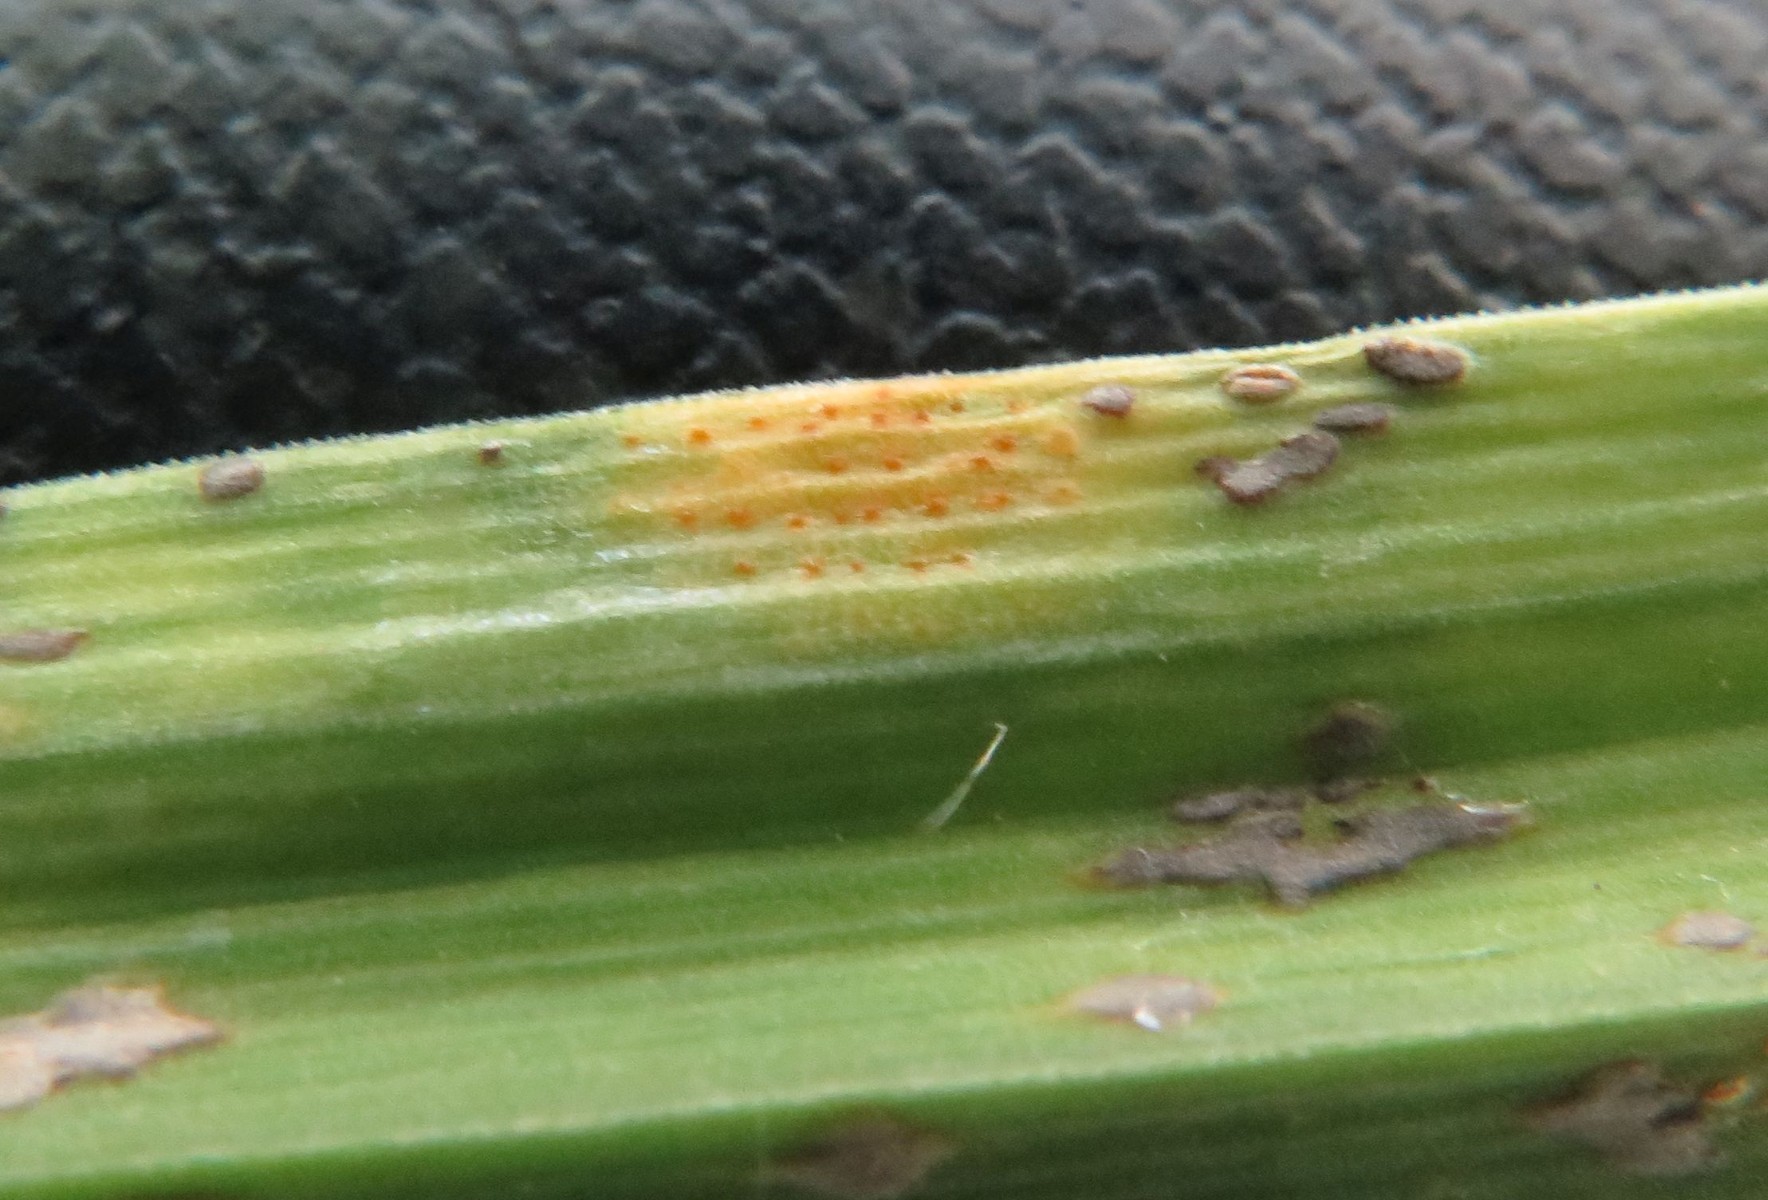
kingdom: Fungi
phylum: Basidiomycota
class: Pucciniomycetes
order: Pucciniales
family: Pucciniaceae
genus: Puccinia
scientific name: Puccinia porri
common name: Allium rust
